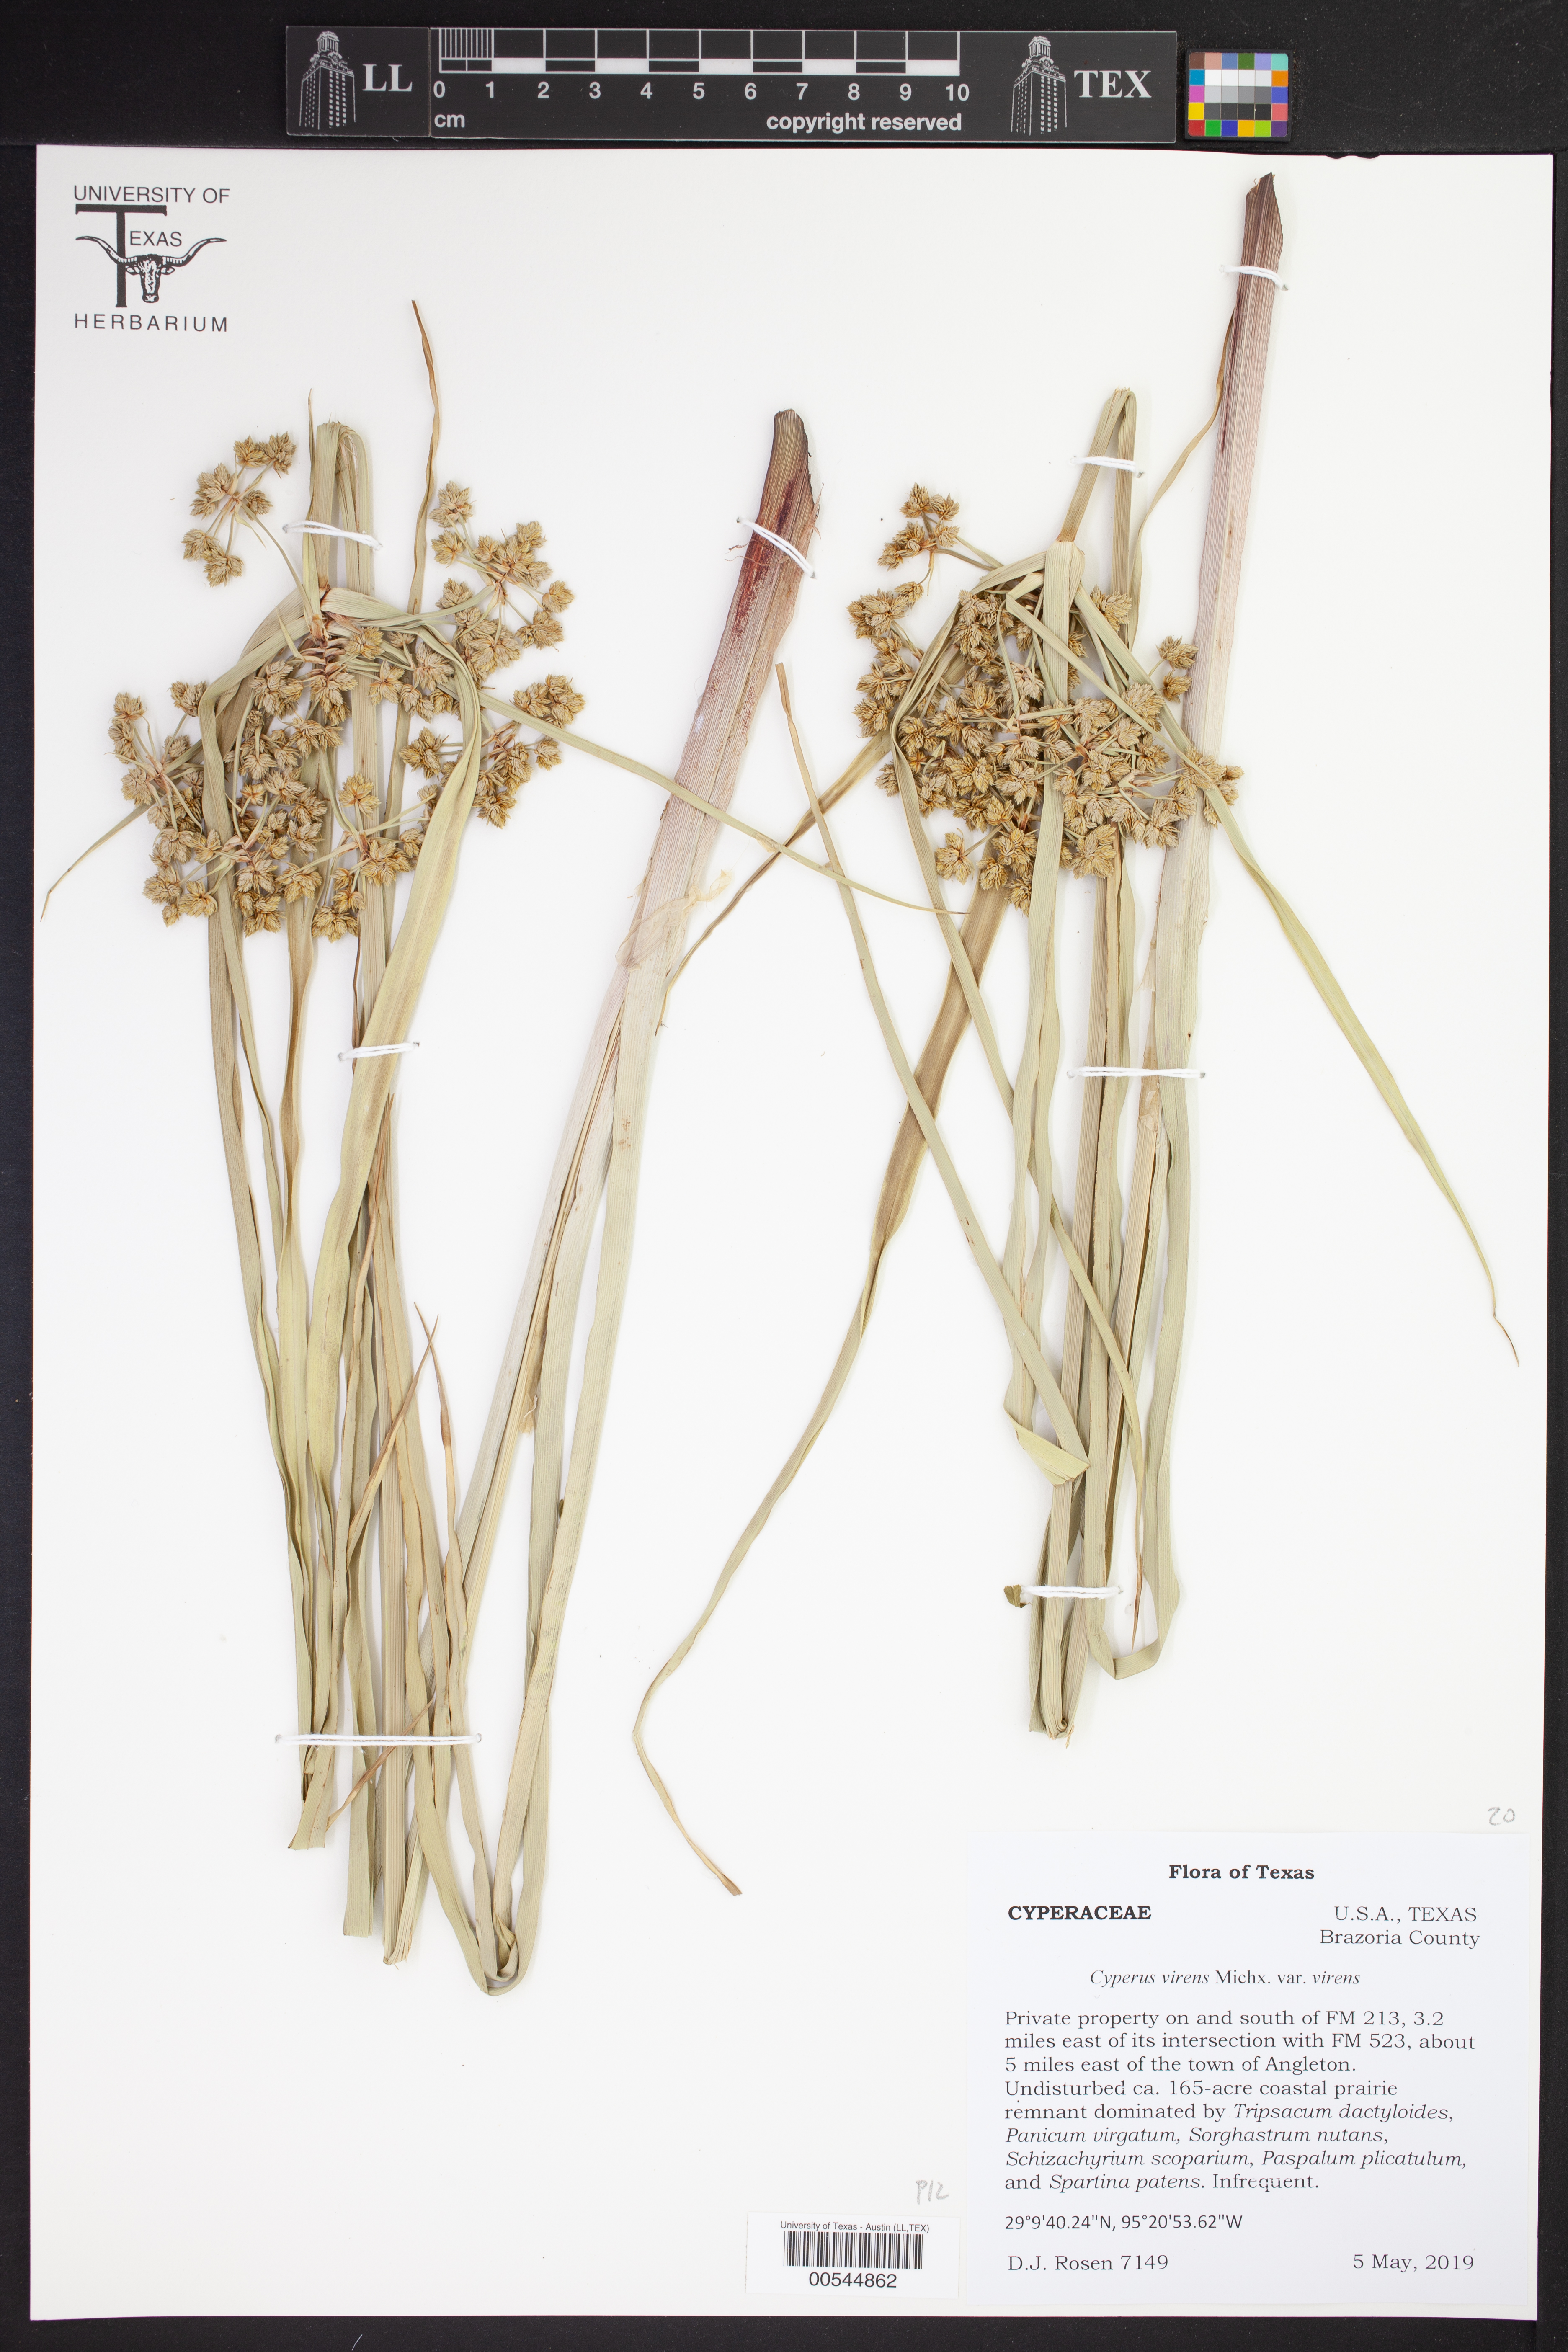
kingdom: Plantae
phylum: Tracheophyta
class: Liliopsida
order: Poales
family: Cyperaceae
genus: Cyperus
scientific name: Cyperus virens
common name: Green flatsedge
